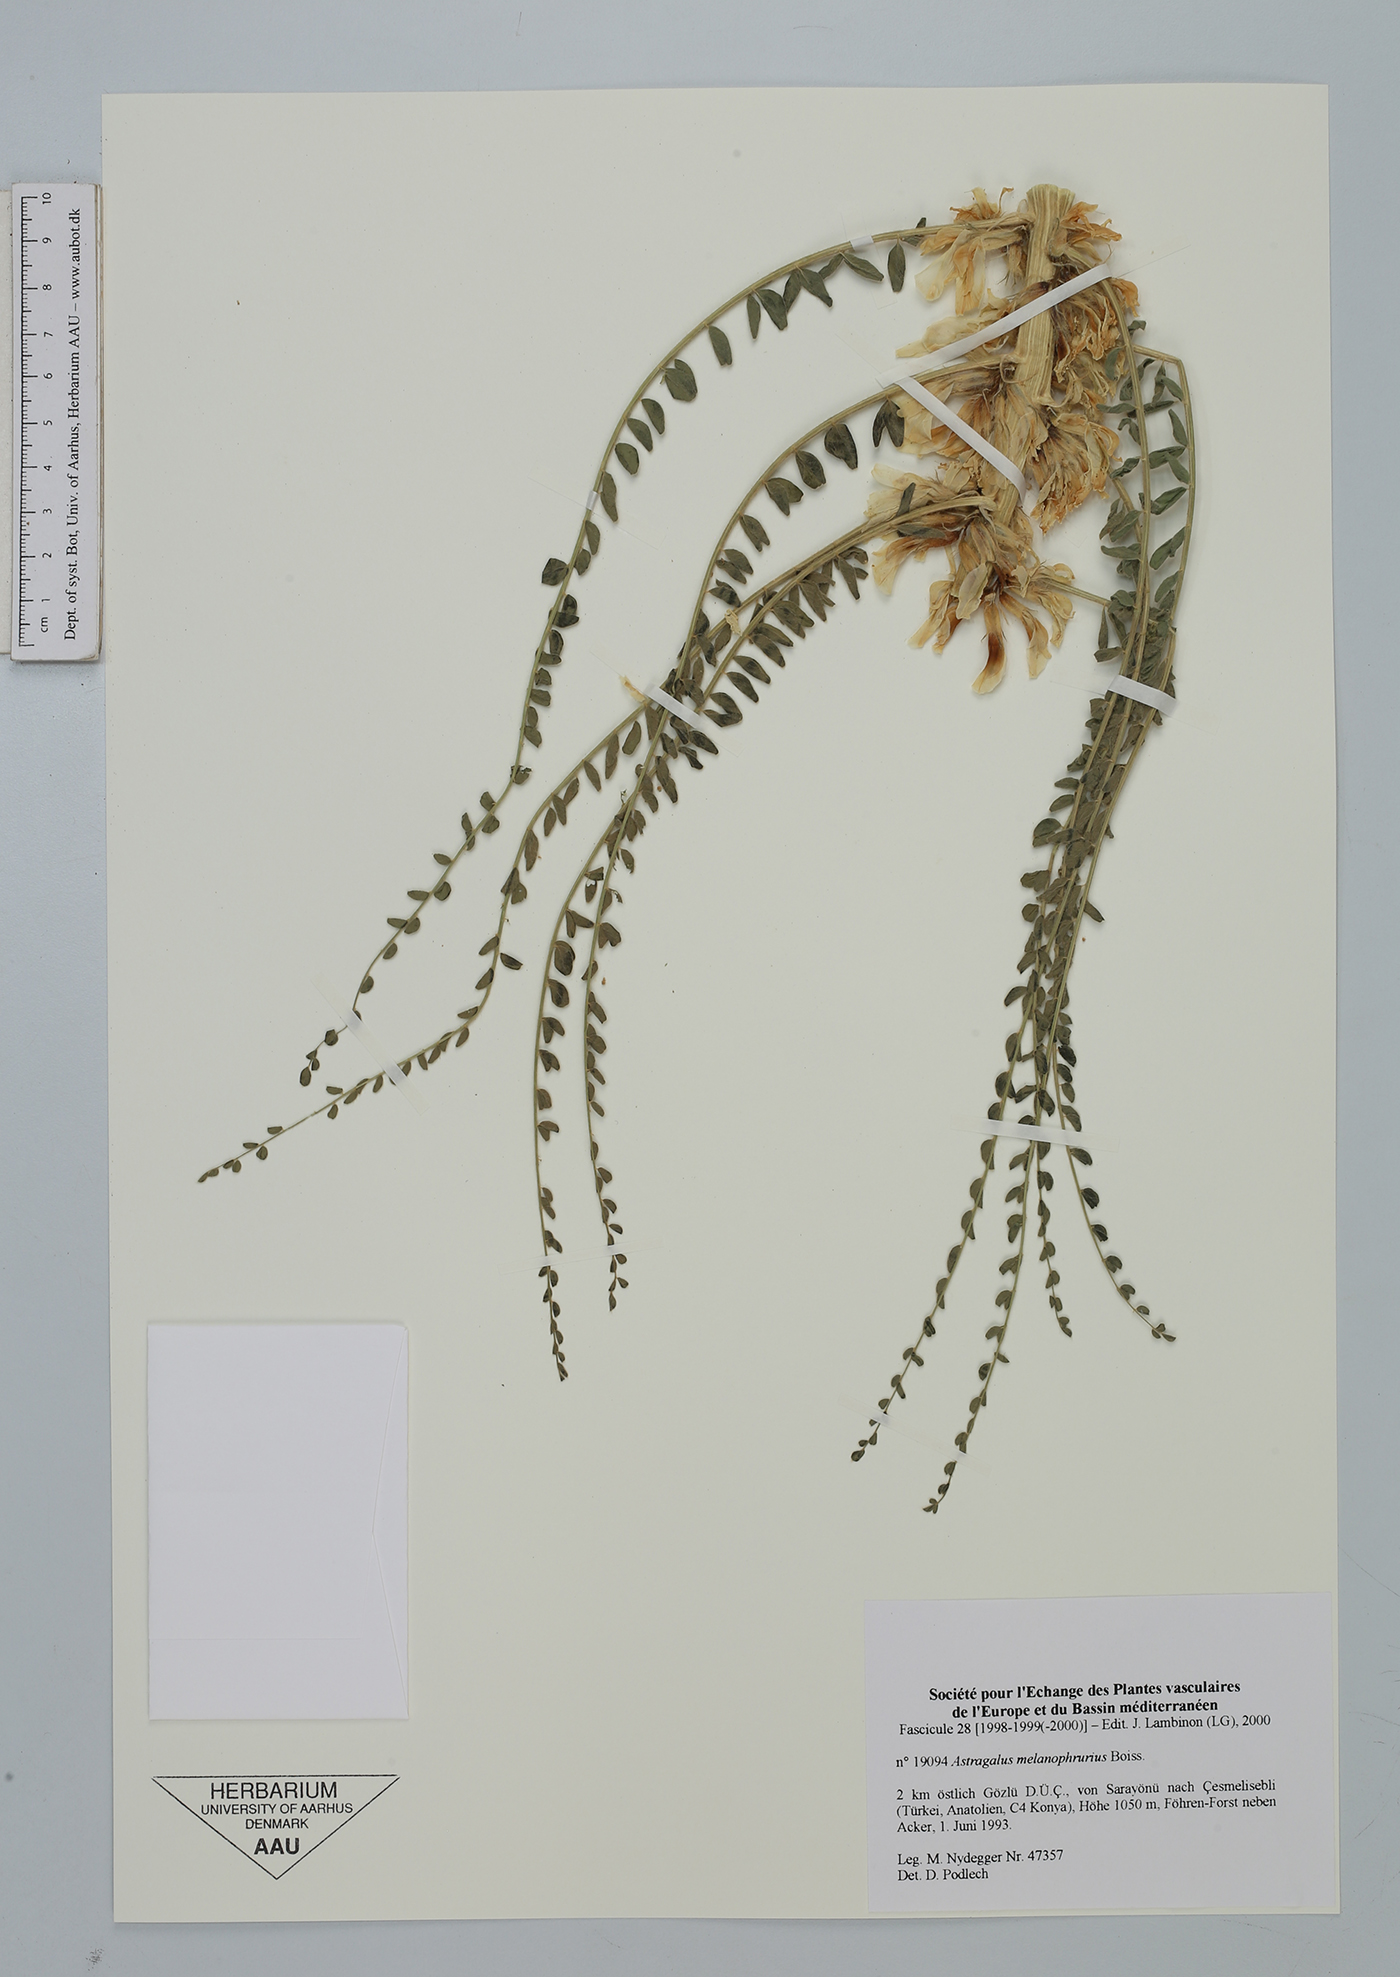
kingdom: Plantae
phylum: Tracheophyta
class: Magnoliopsida
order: Fabales
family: Fabaceae
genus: Astragalus
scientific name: Astragalus melanophrurius
